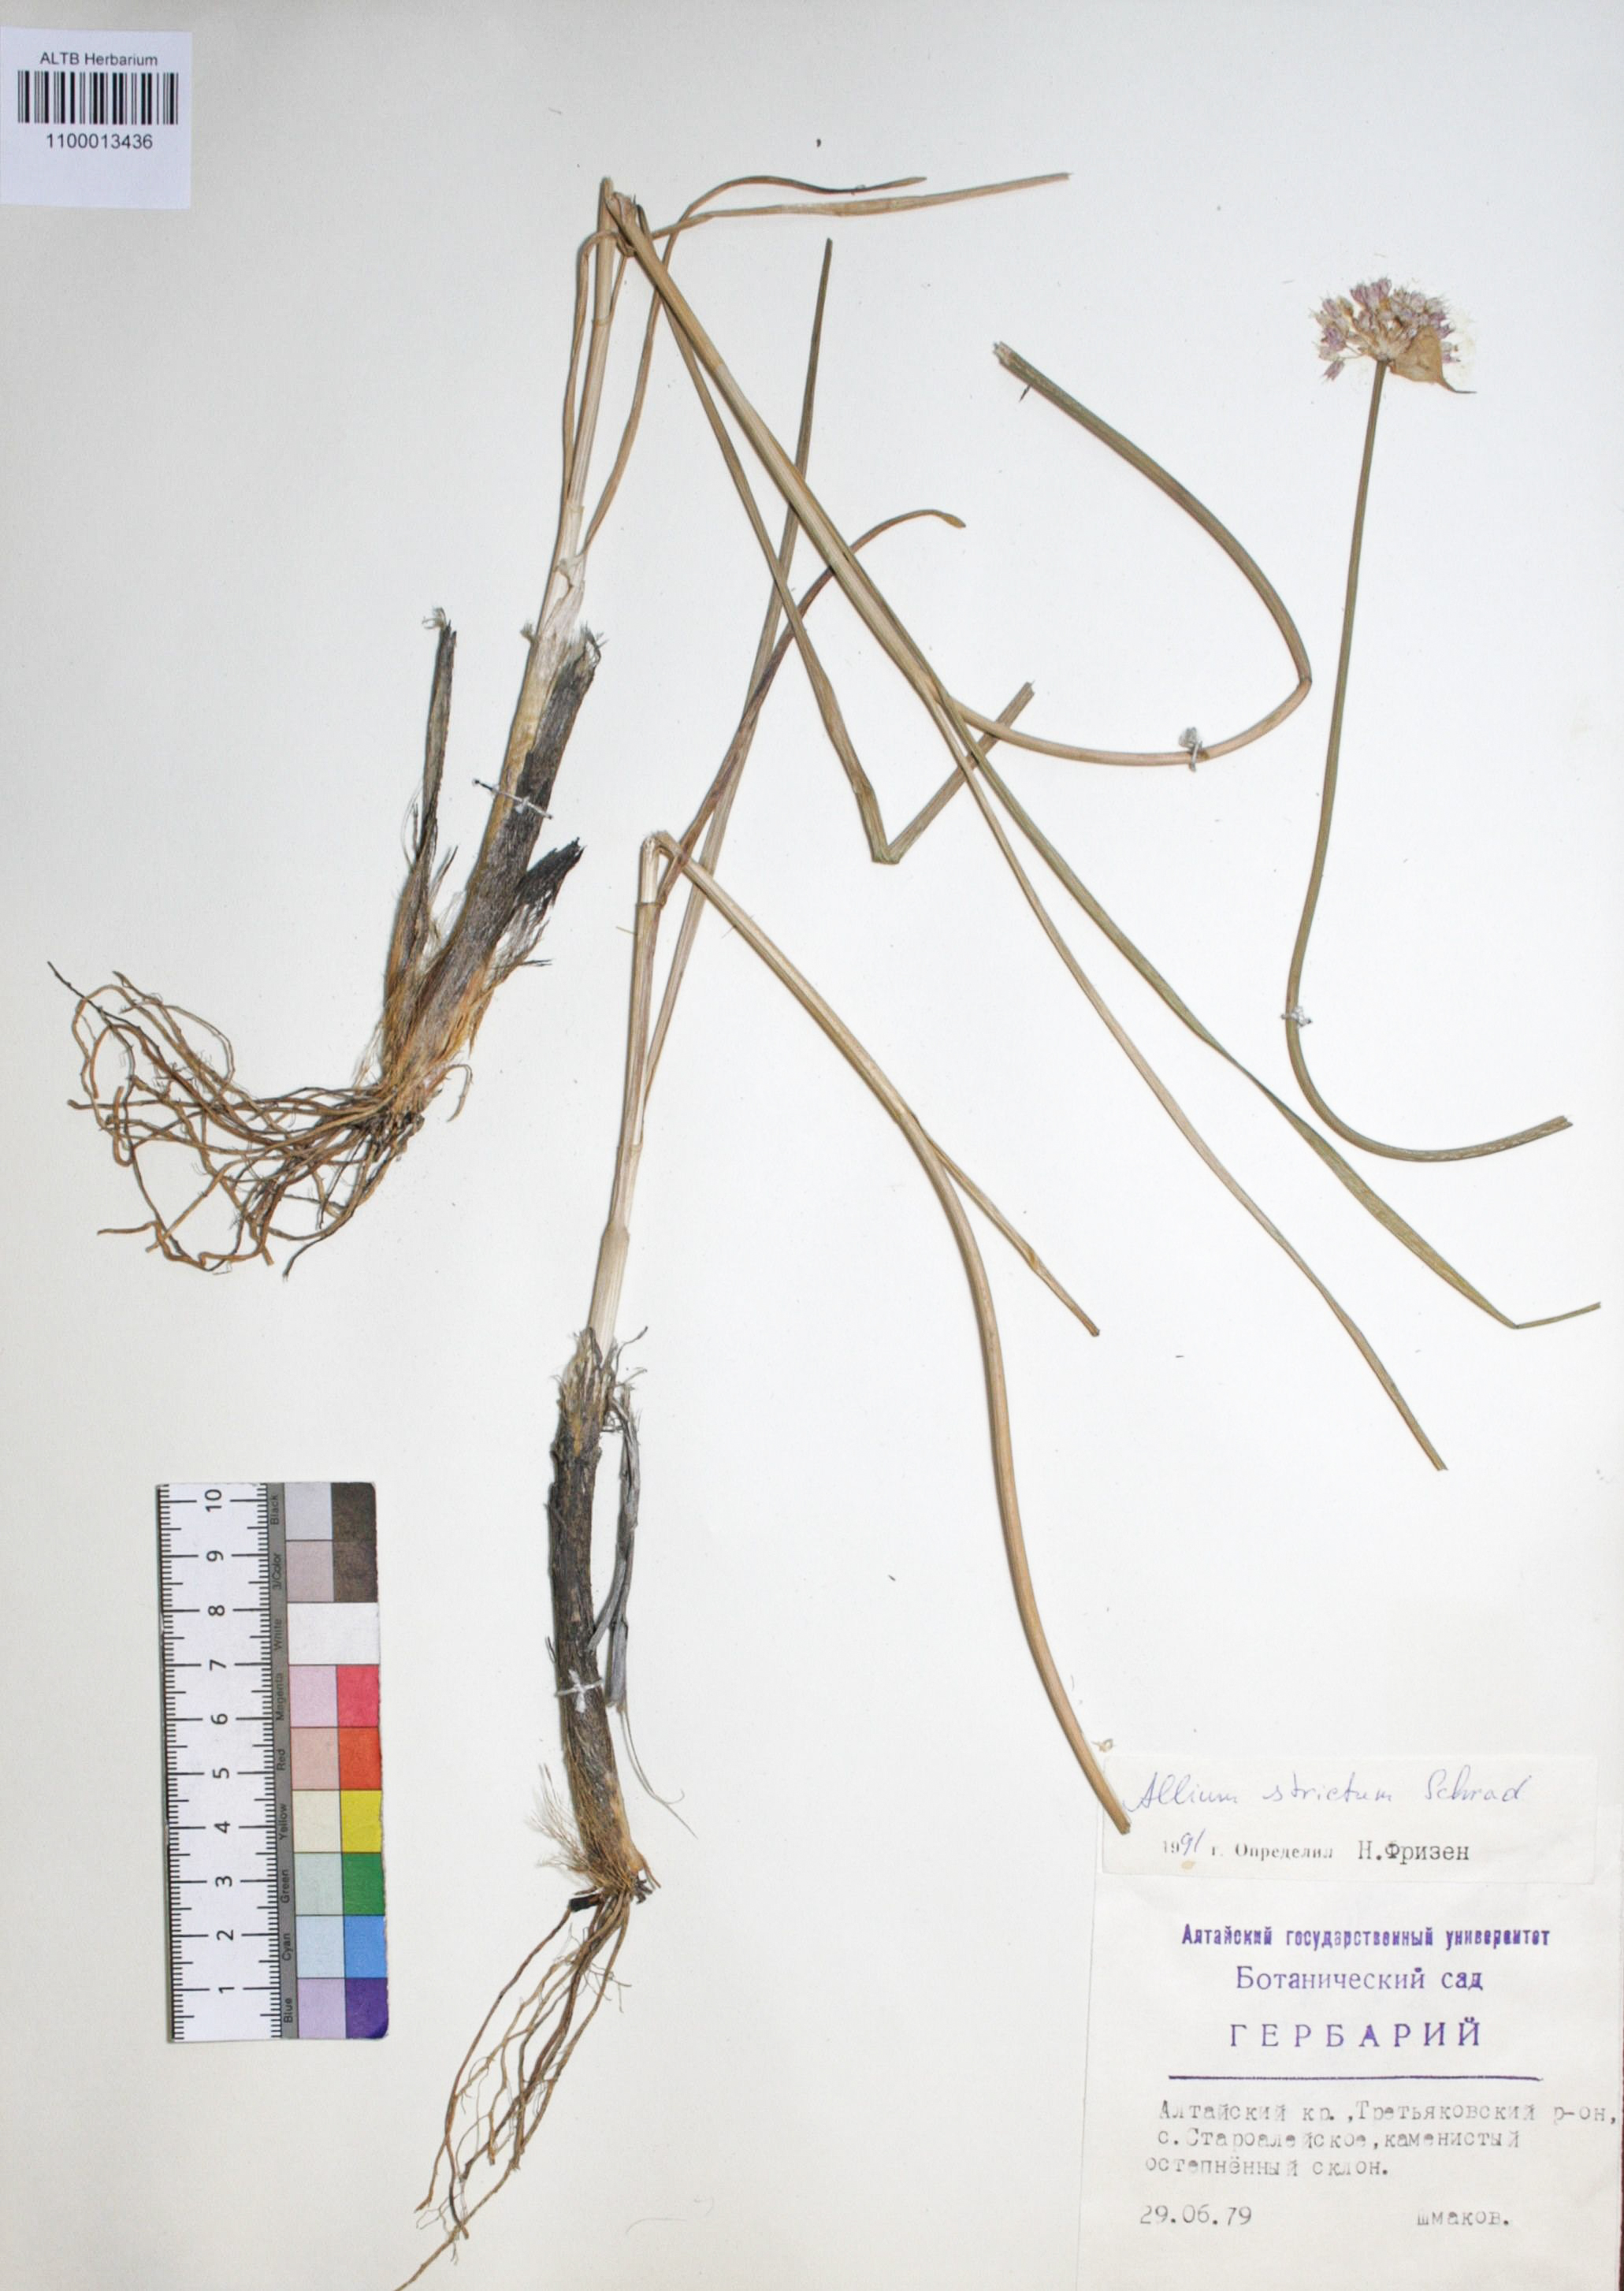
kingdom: Plantae
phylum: Tracheophyta
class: Liliopsida
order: Asparagales
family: Amaryllidaceae
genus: Allium
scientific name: Allium strictum
